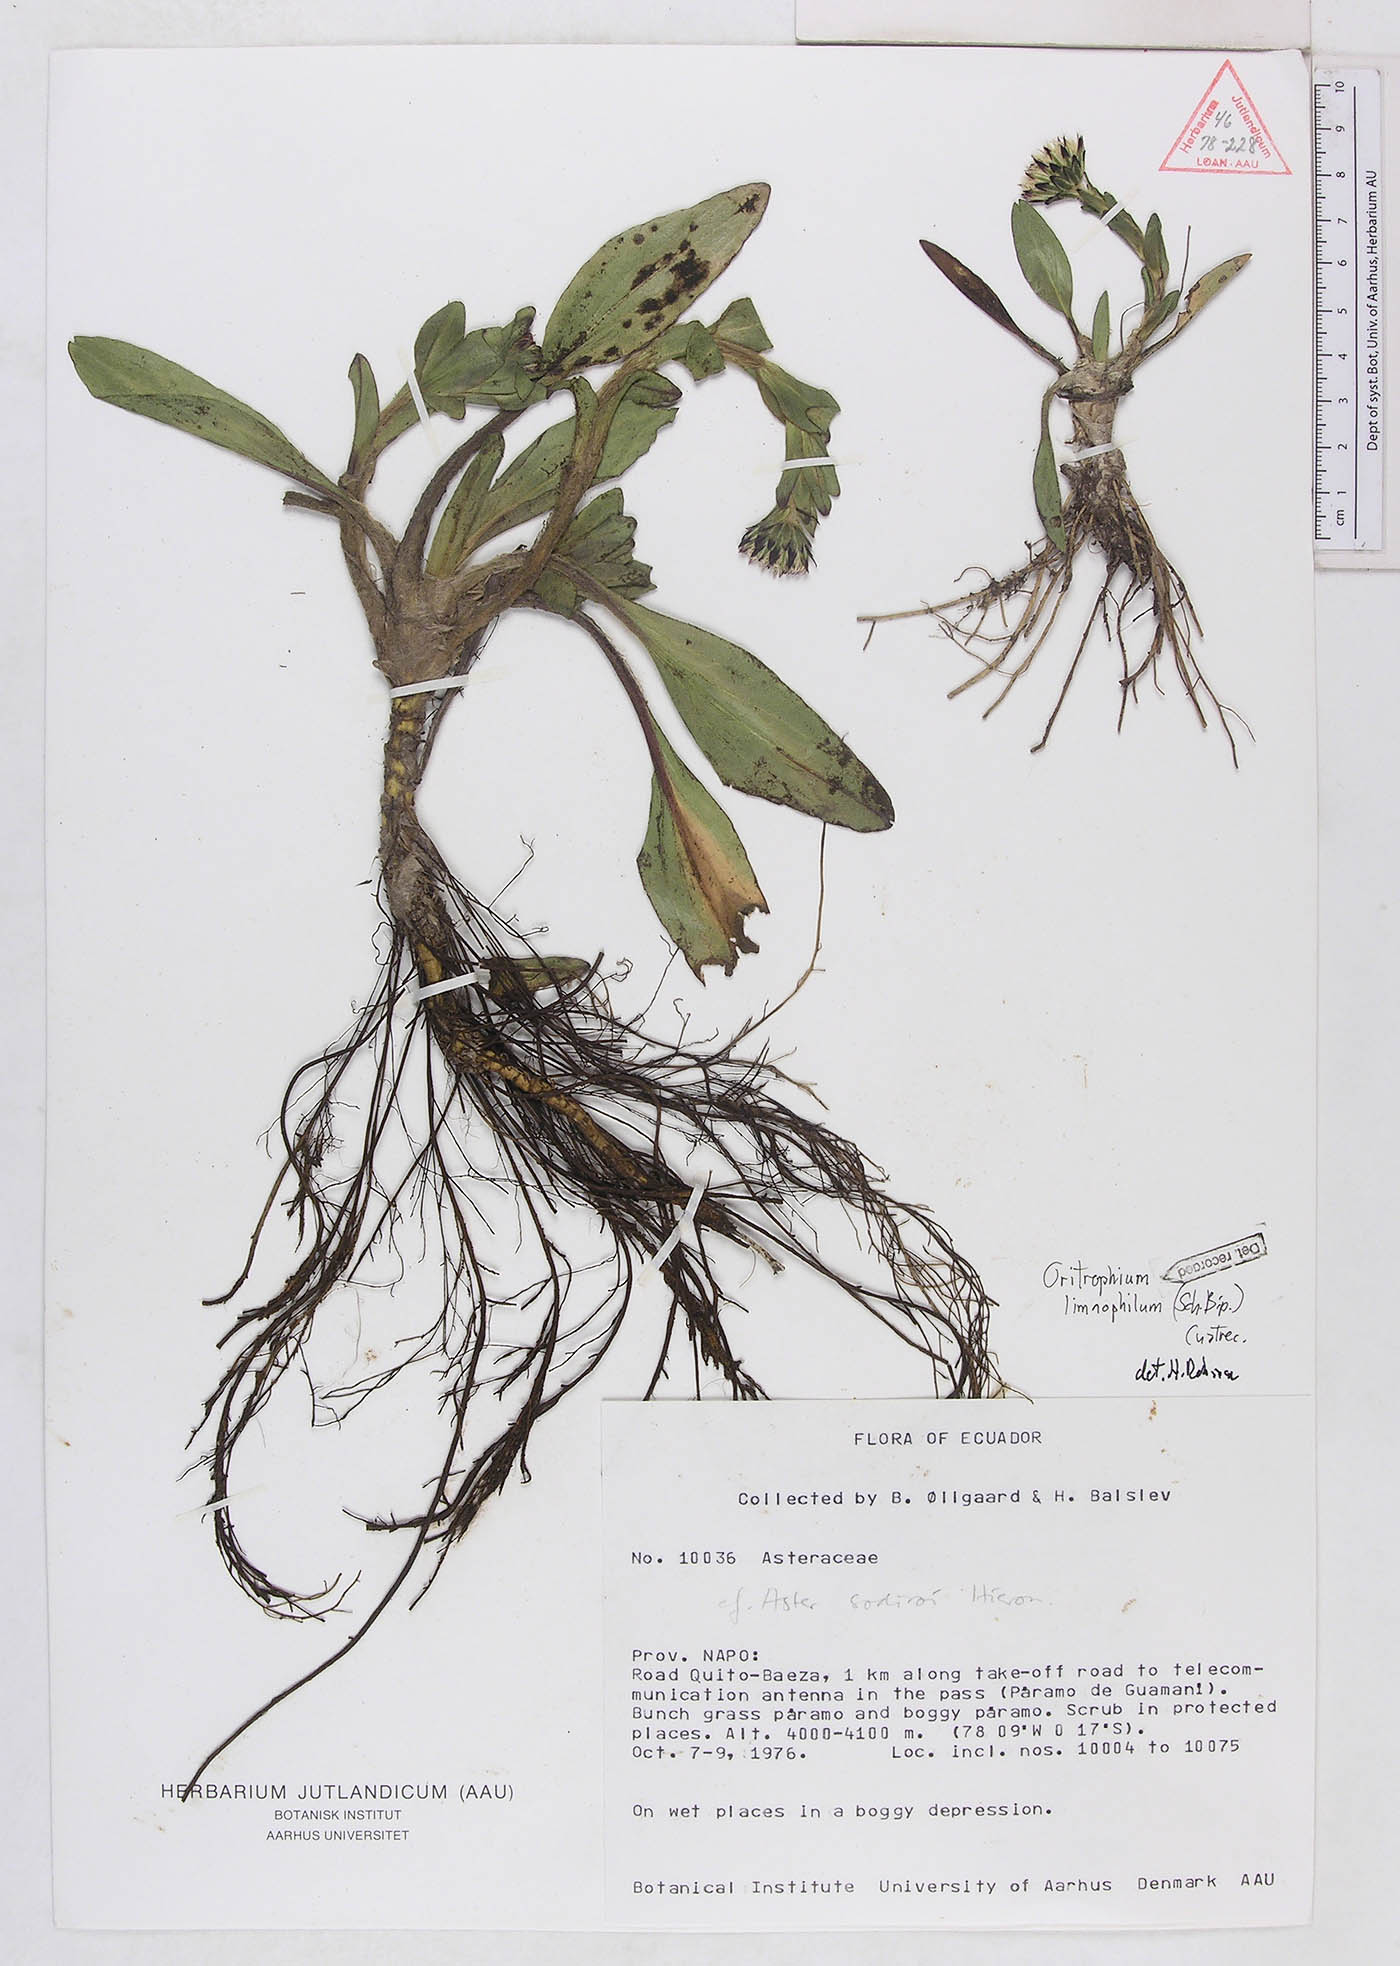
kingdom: Plantae
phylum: Tracheophyta
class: Magnoliopsida
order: Asterales
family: Asteraceae
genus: Oritrophium
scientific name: Oritrophium limnophilum
